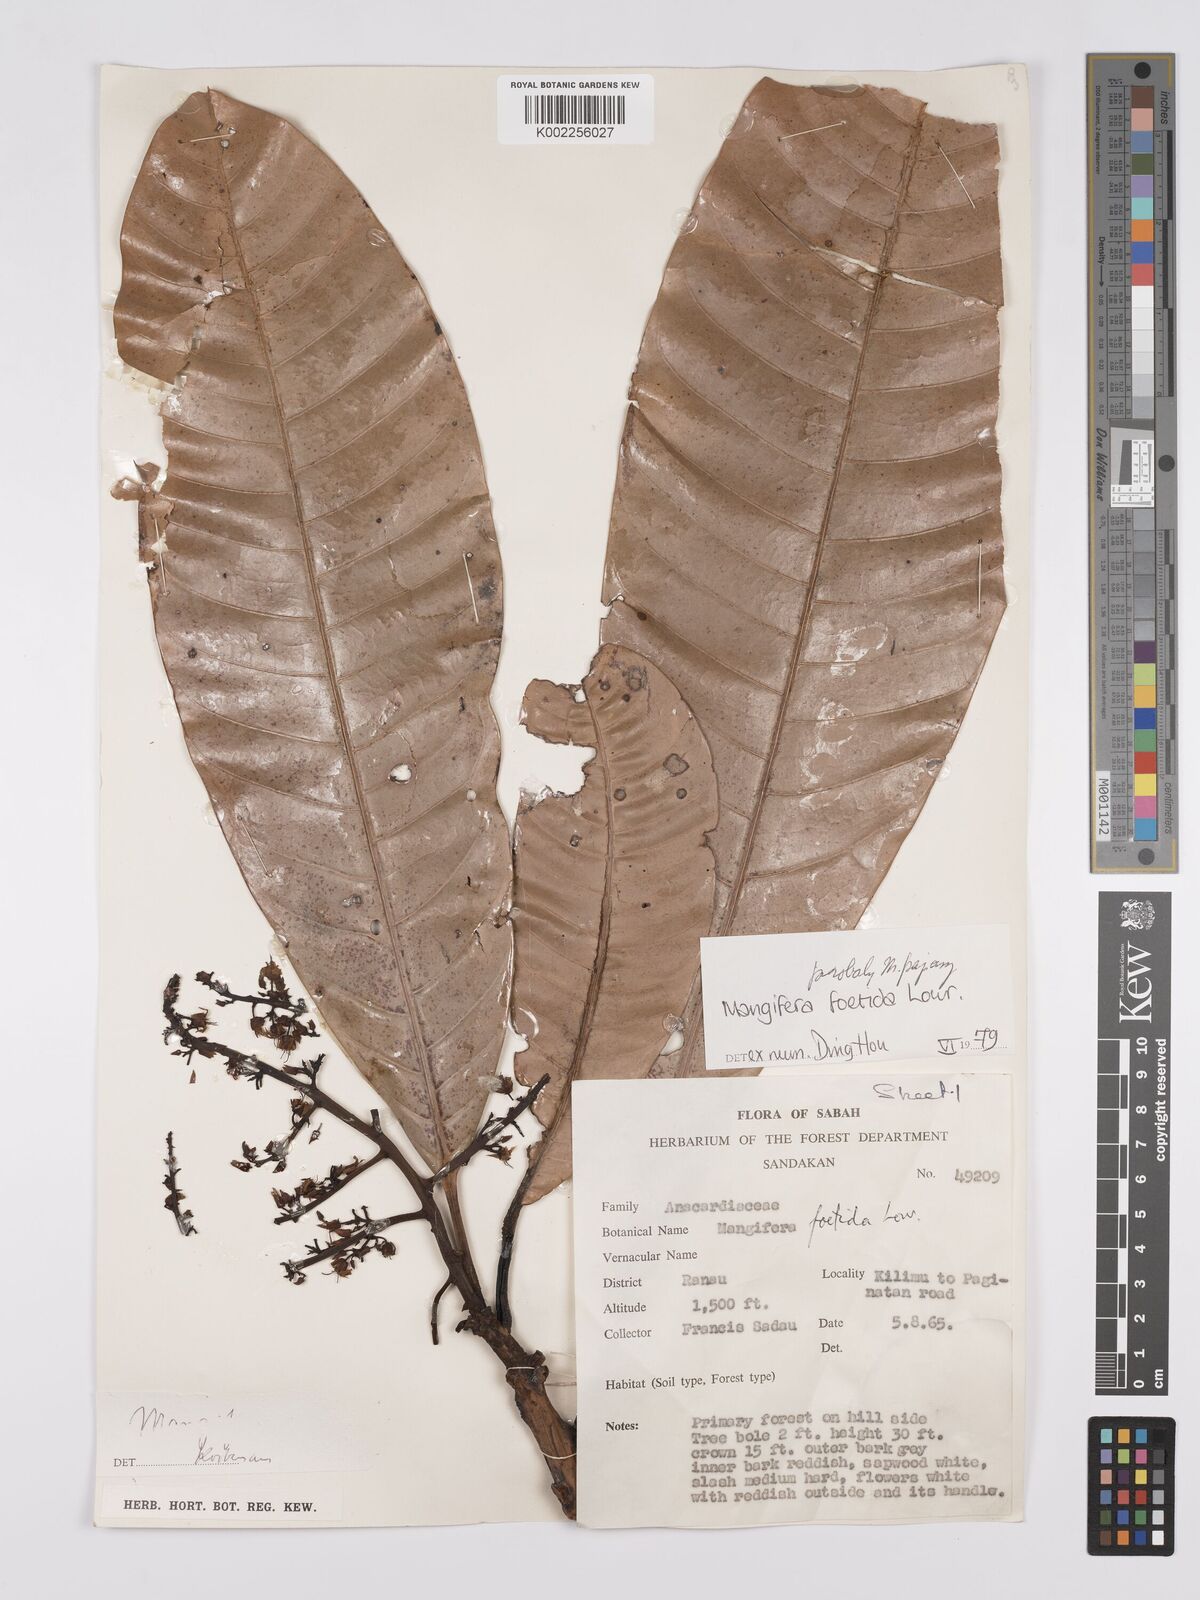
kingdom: Plantae
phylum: Tracheophyta
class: Magnoliopsida
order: Sapindales
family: Anacardiaceae
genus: Mangifera
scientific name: Mangifera
